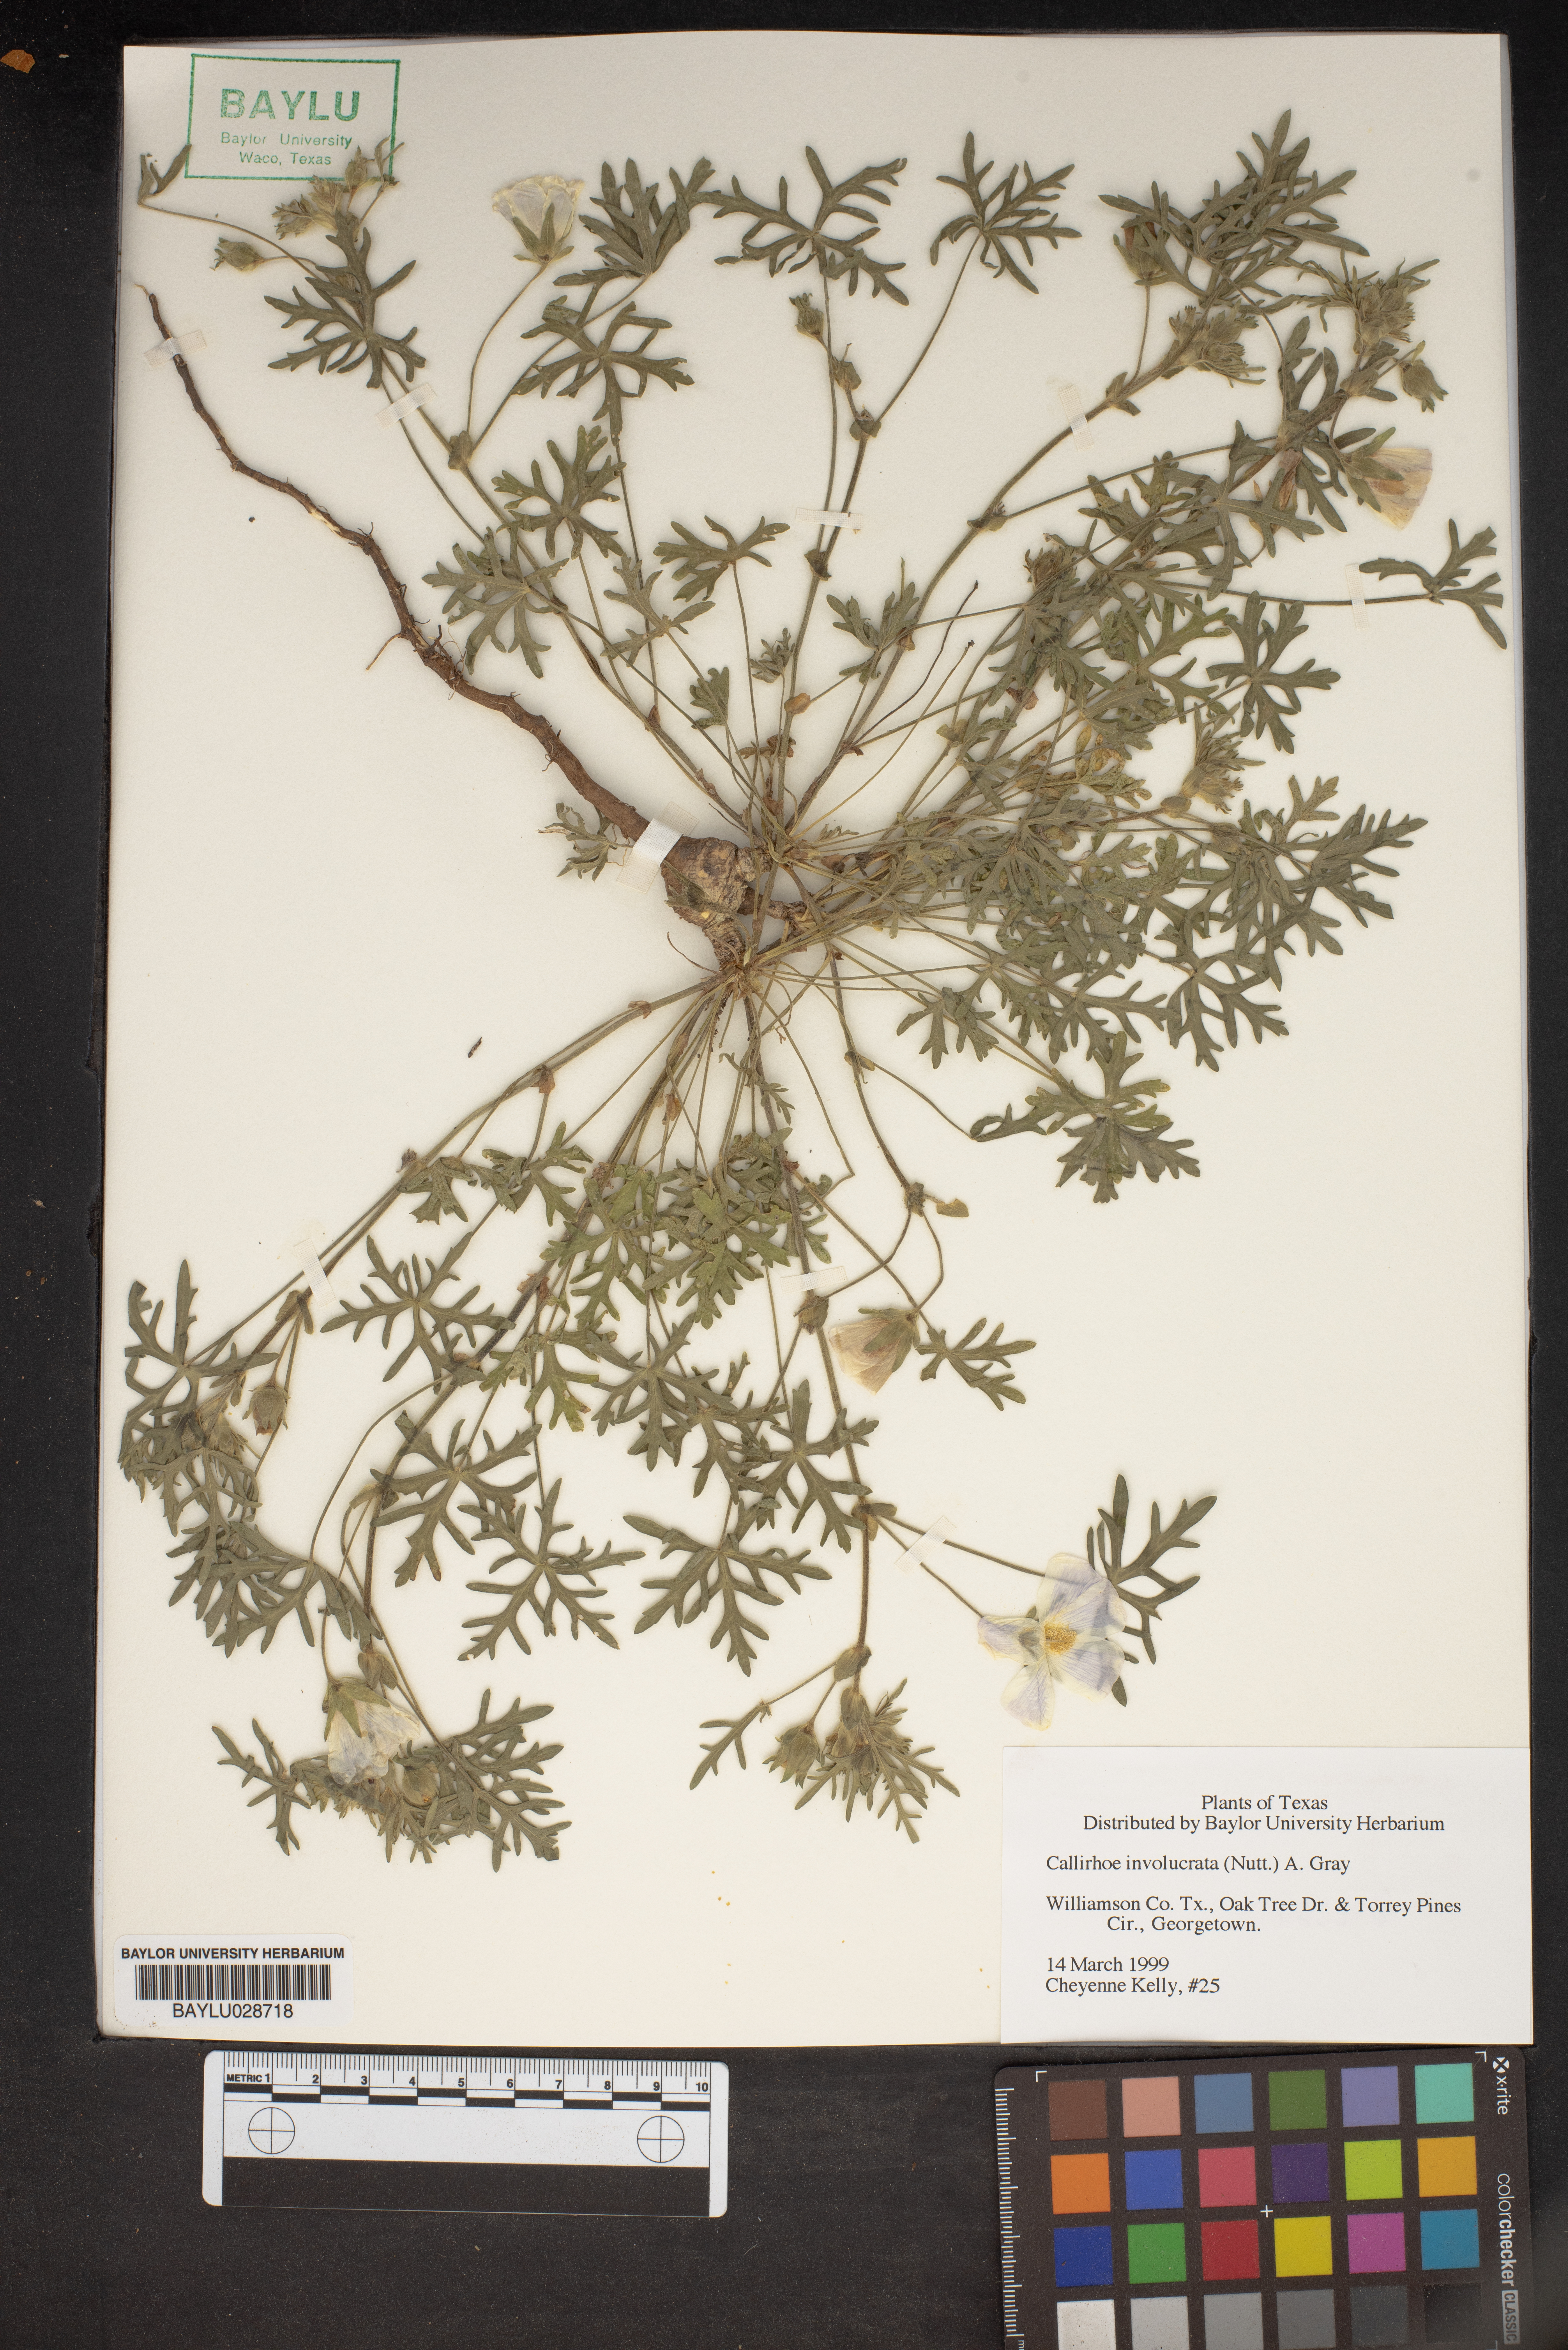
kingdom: Plantae
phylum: Tracheophyta
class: Magnoliopsida
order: Malvales
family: Malvaceae
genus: Callirhoe
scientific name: Callirhoe involucrata
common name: Purple poppy-mallow
